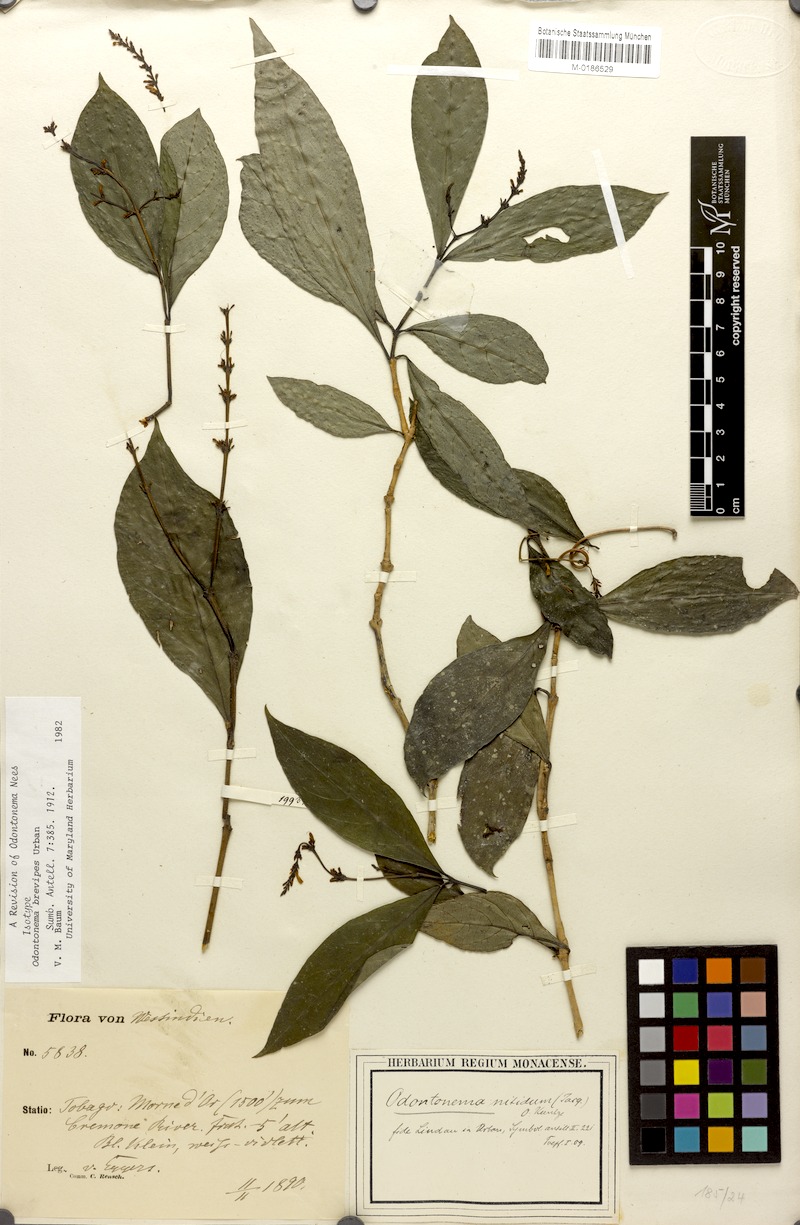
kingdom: Plantae
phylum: Tracheophyta
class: Magnoliopsida
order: Lamiales
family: Acanthaceae
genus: Odontonema
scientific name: Odontonema brevipes
